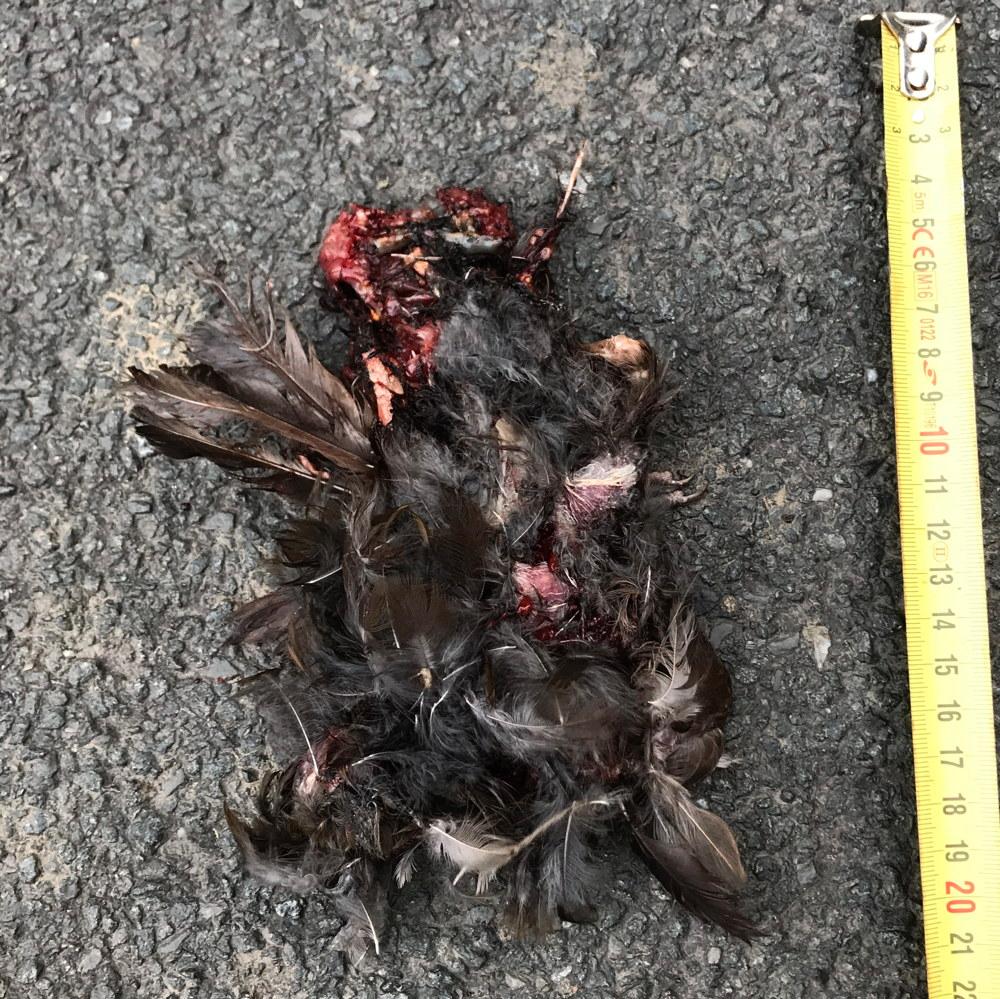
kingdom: Animalia
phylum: Chordata
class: Aves
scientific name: Aves
